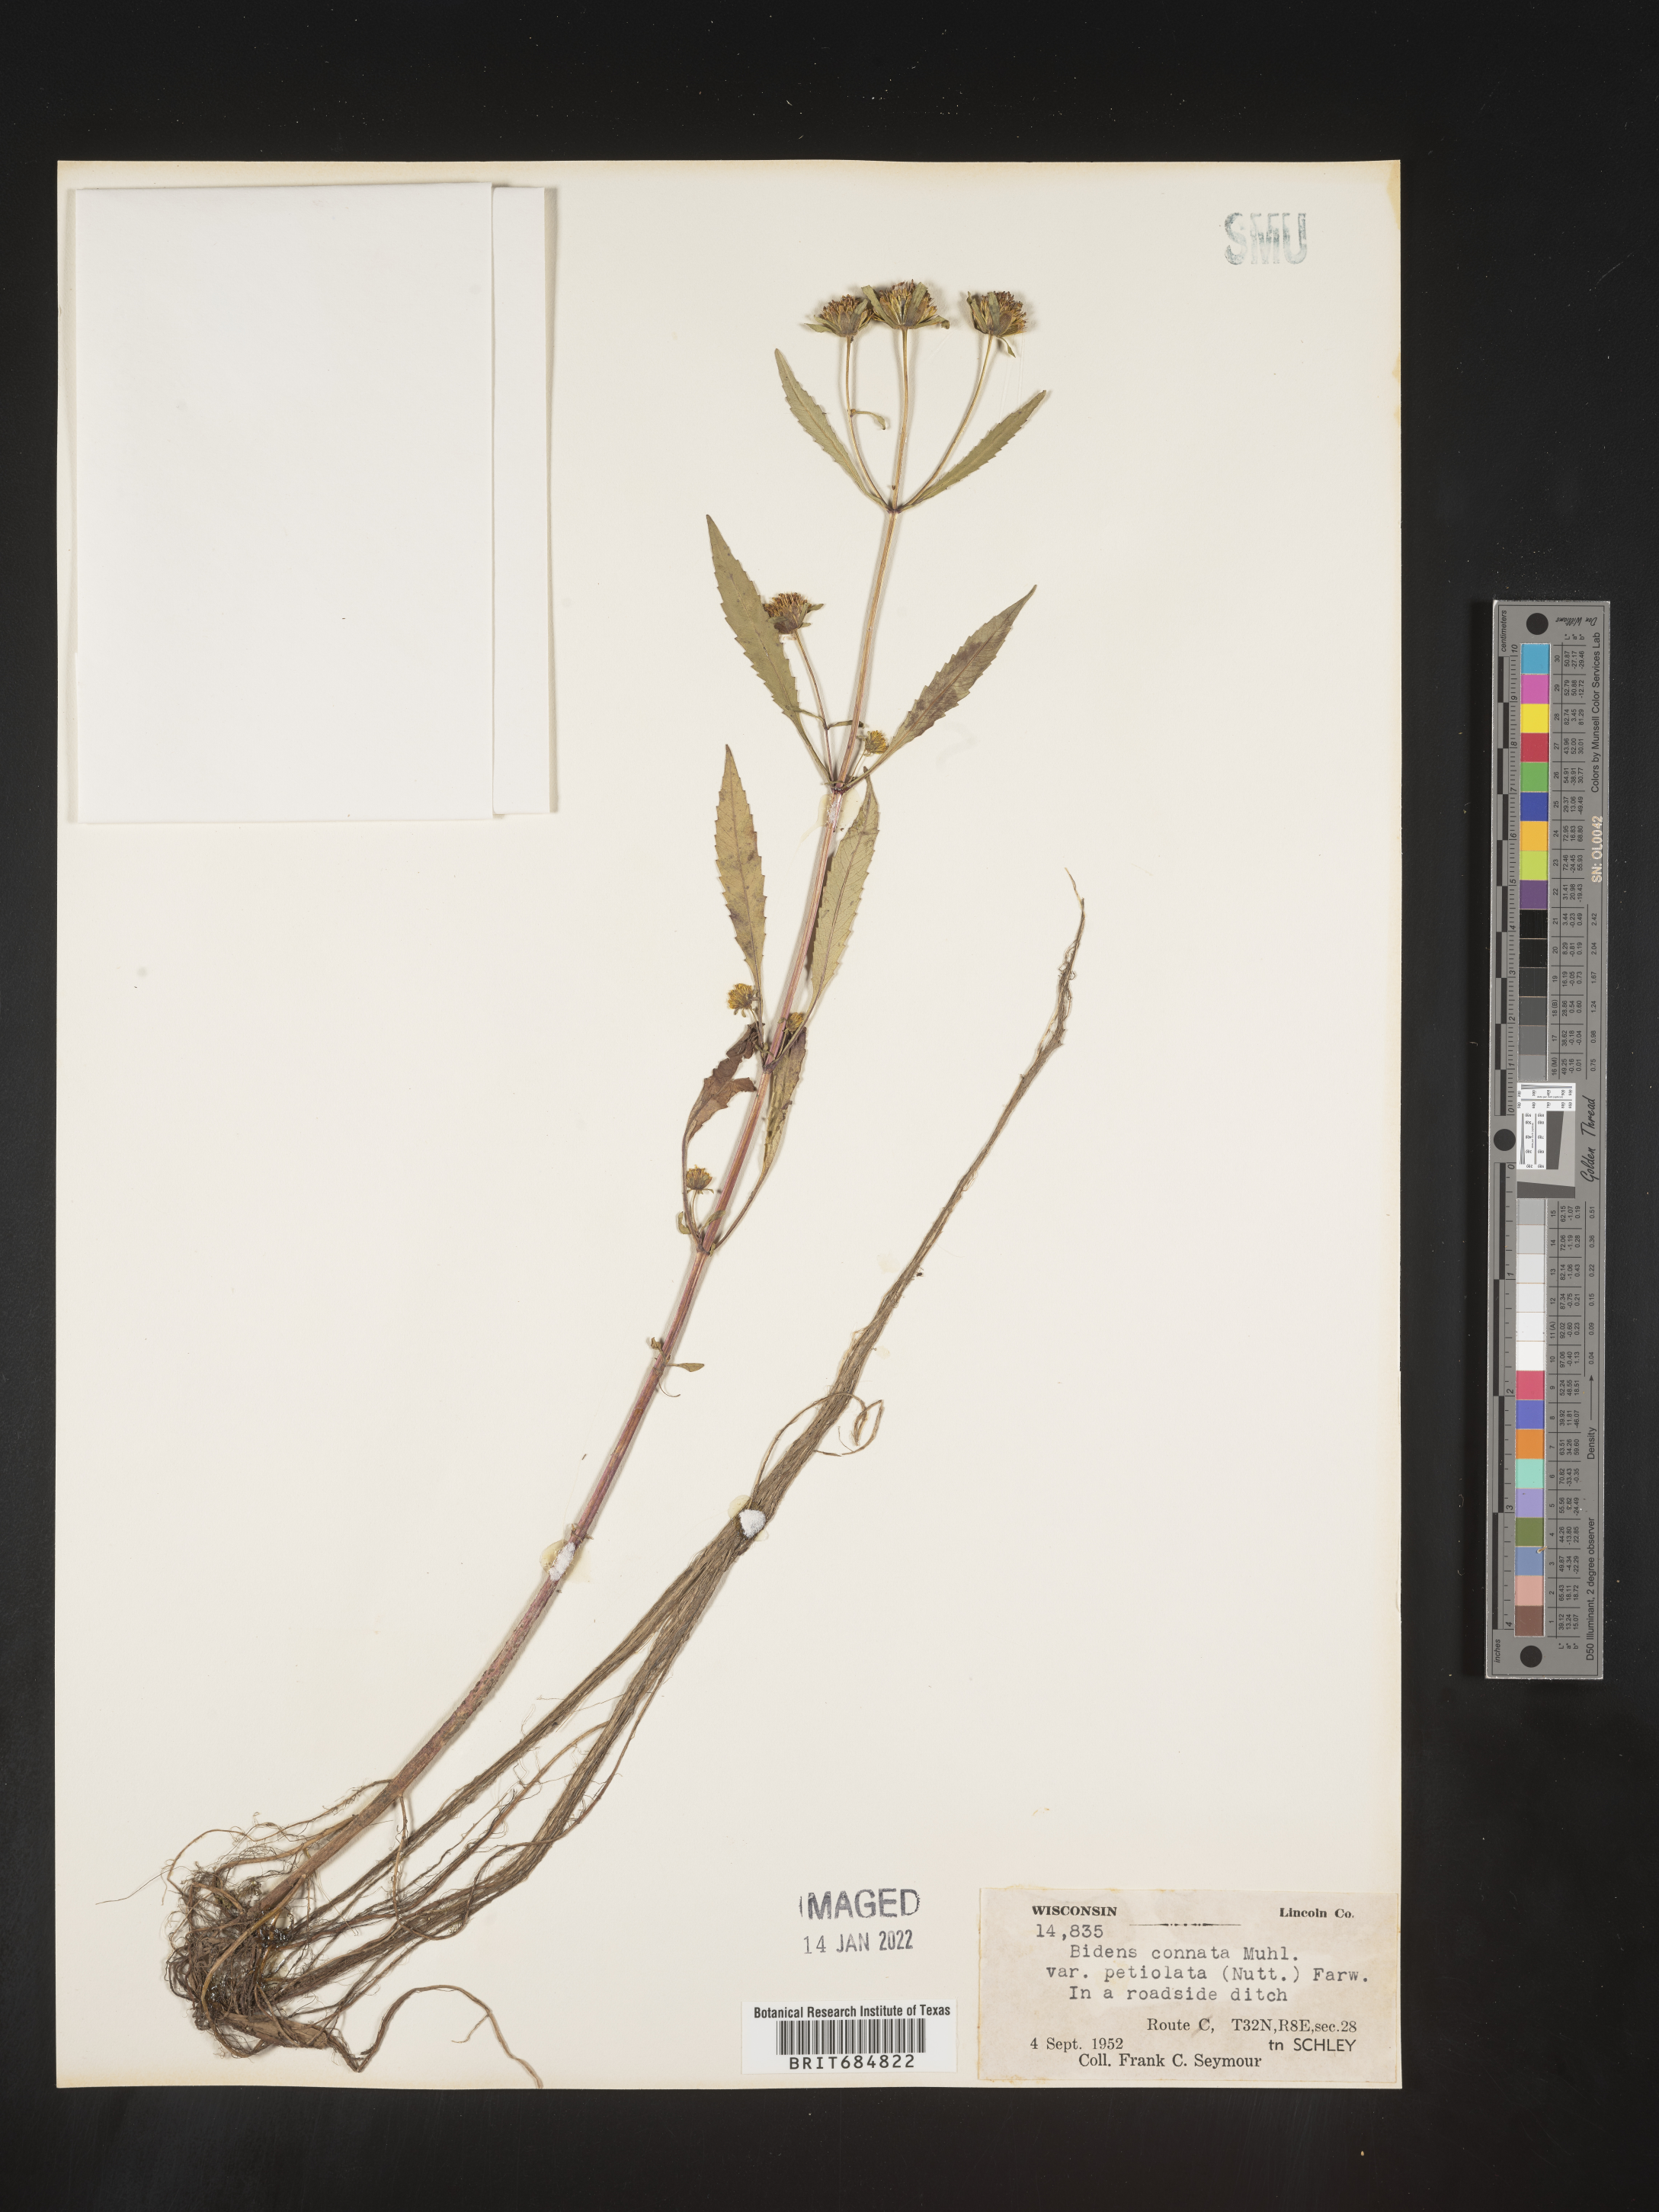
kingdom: Plantae
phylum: Tracheophyta
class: Magnoliopsida
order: Asterales
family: Asteraceae
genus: Bidens
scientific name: Bidens tripartita
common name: Trifid bur-marigold
